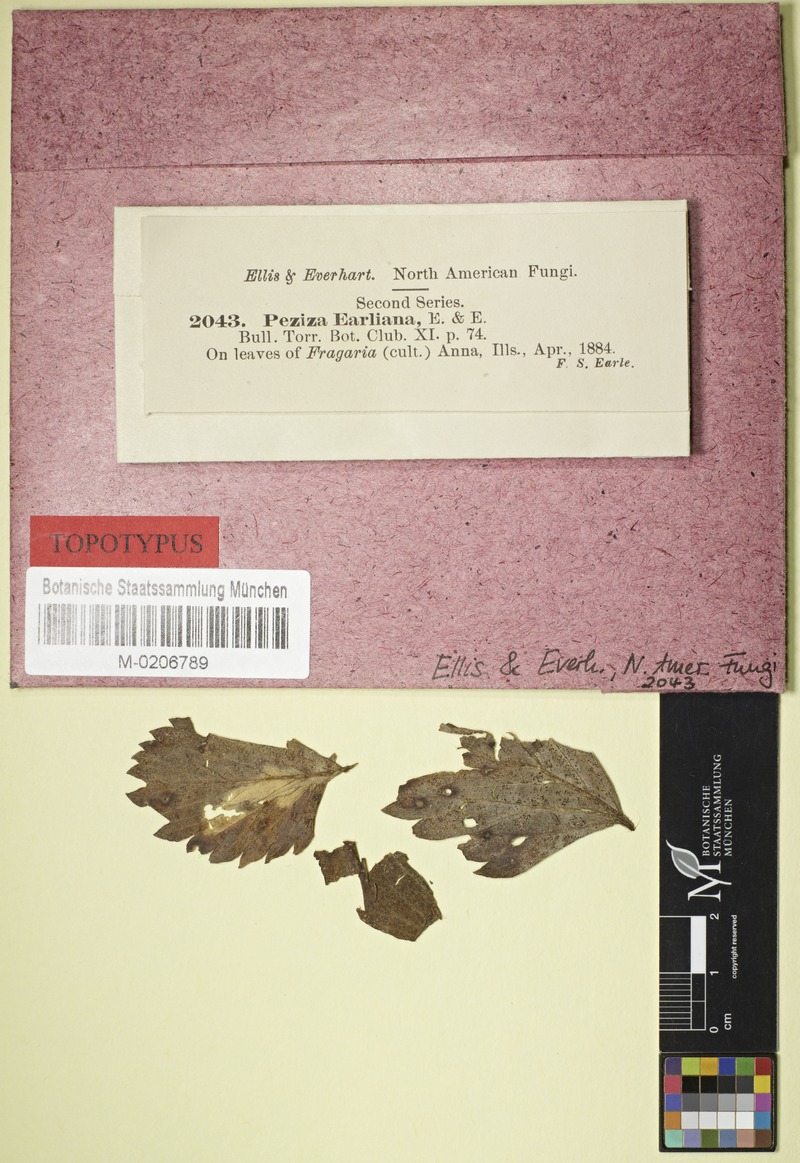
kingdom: Fungi
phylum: Ascomycota
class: Leotiomycetes
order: Helotiales
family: Drepanopezizaceae
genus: Diplocarpon
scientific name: Diplocarpon earlianum
